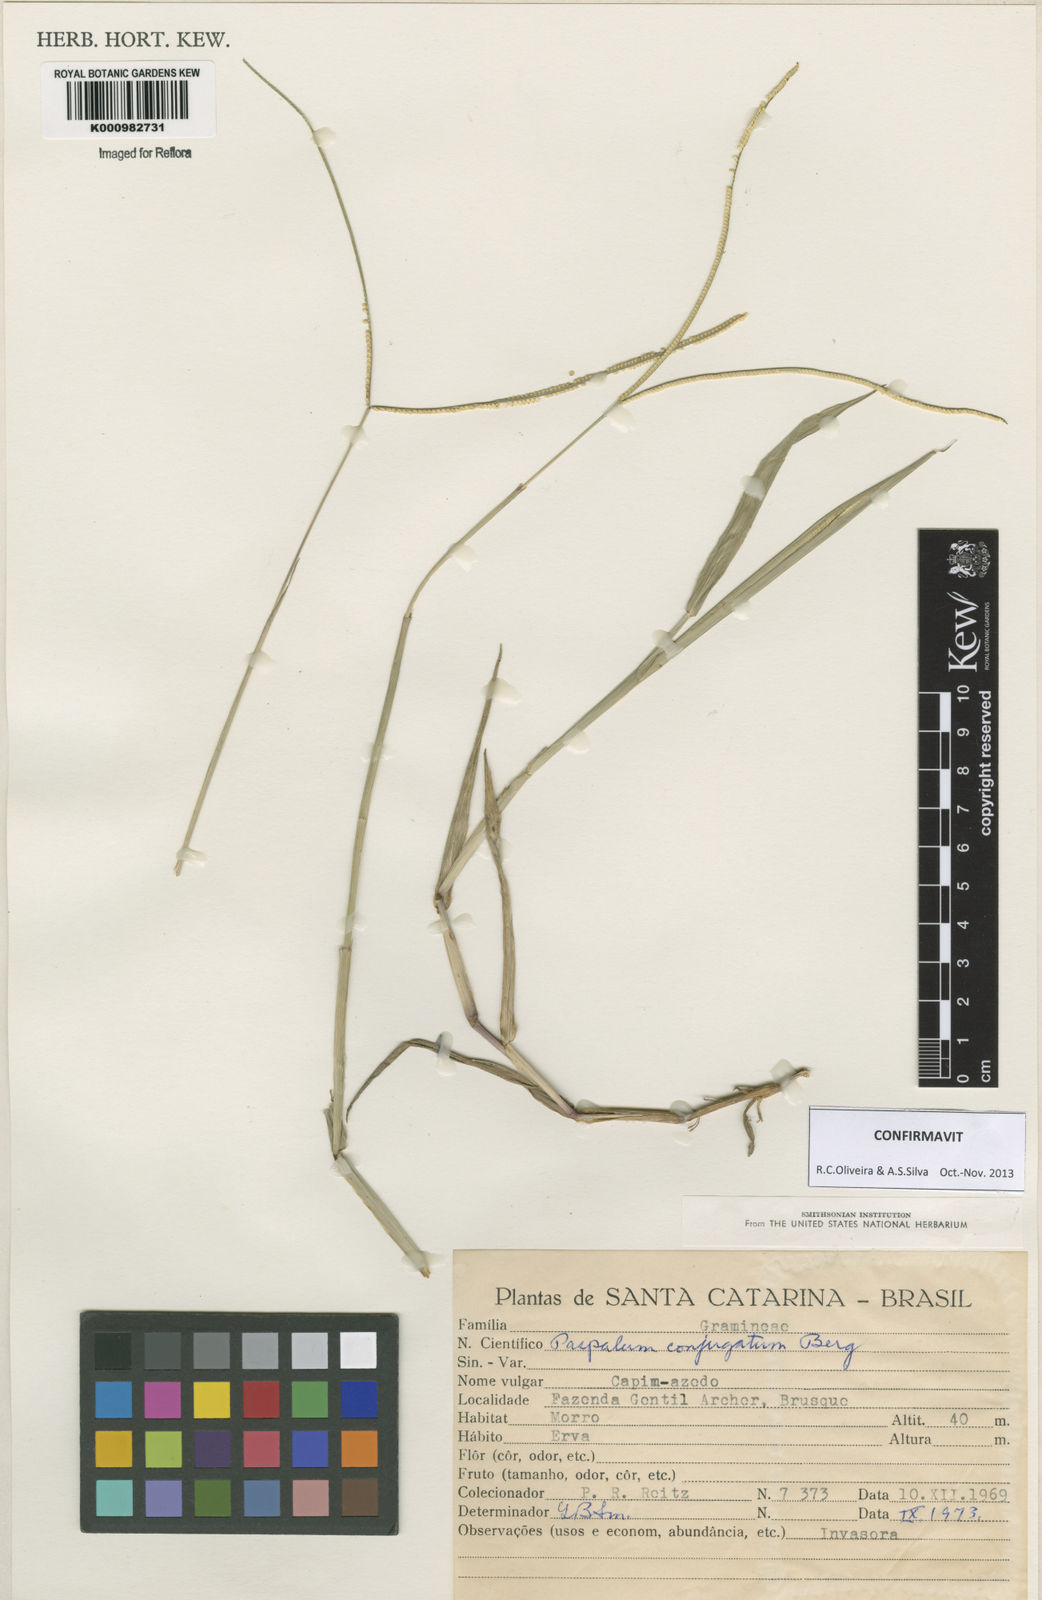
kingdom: Plantae
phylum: Tracheophyta
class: Liliopsida
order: Poales
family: Poaceae
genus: Paspalum
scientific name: Paspalum conjugatum
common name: Hilograss
